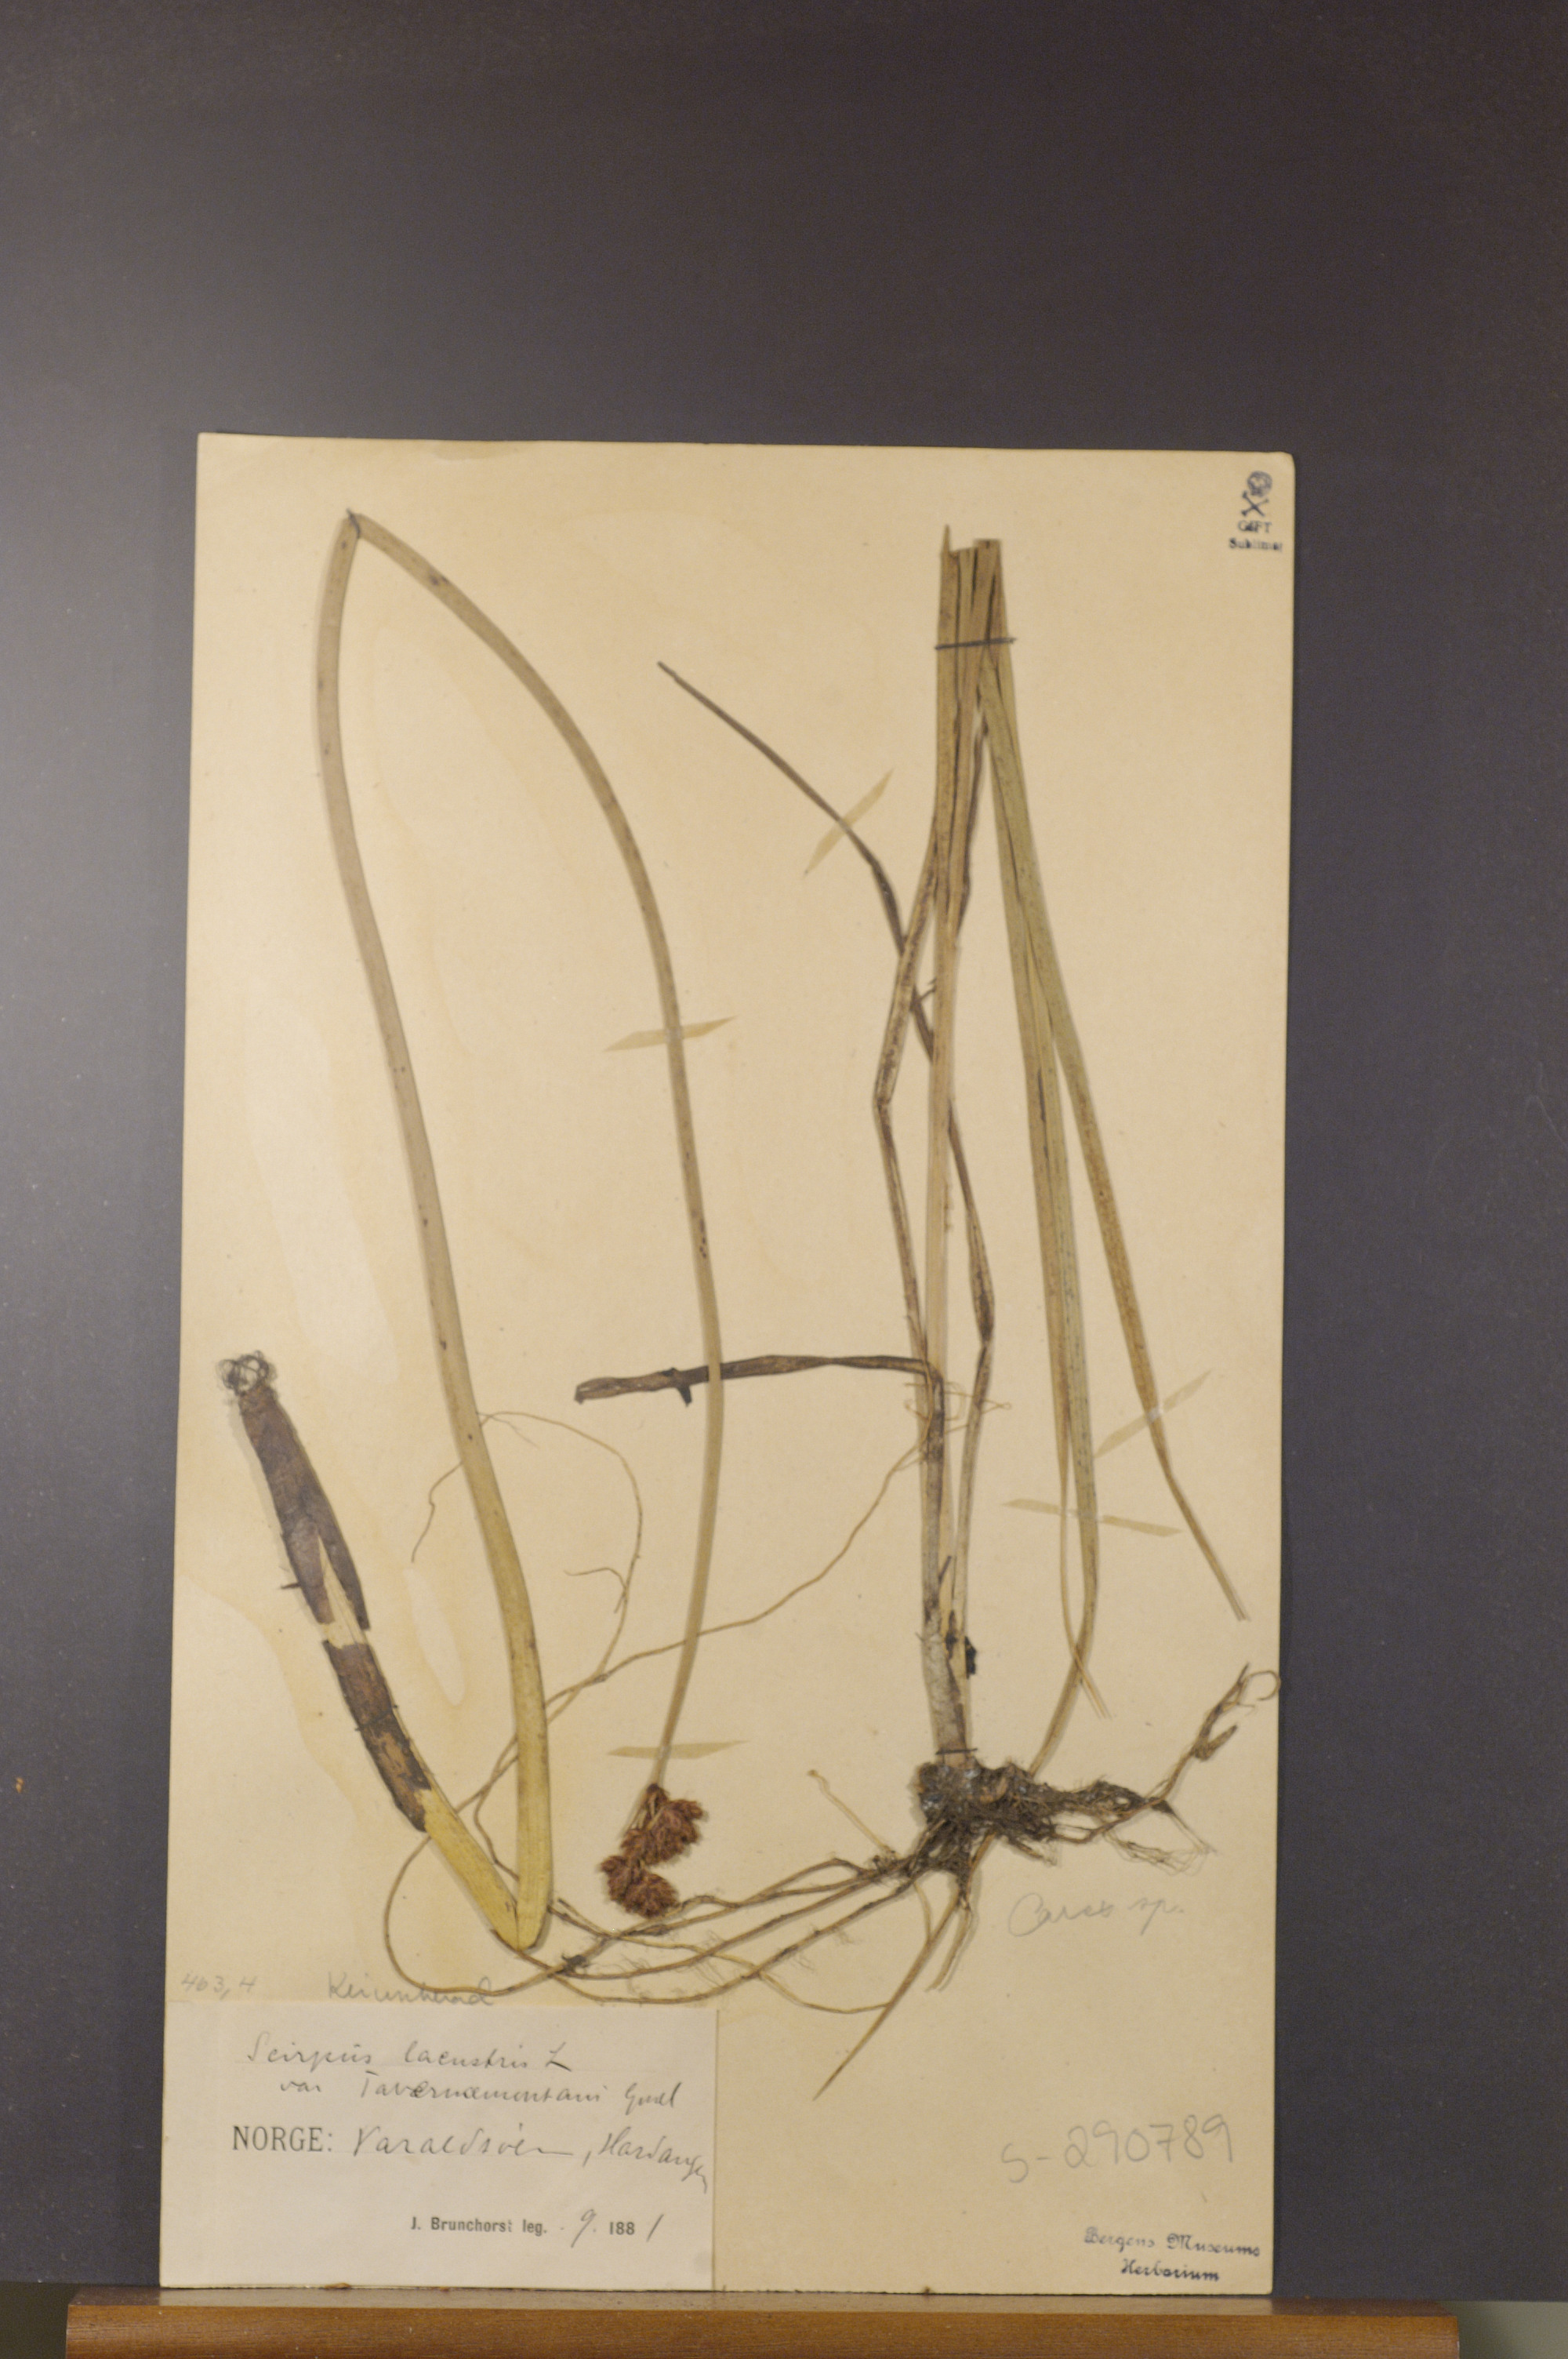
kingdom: Plantae
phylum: Tracheophyta
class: Liliopsida
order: Poales
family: Cyperaceae
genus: Schoenoplectus
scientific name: Schoenoplectus tabernaemontani
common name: Grey club-rush
